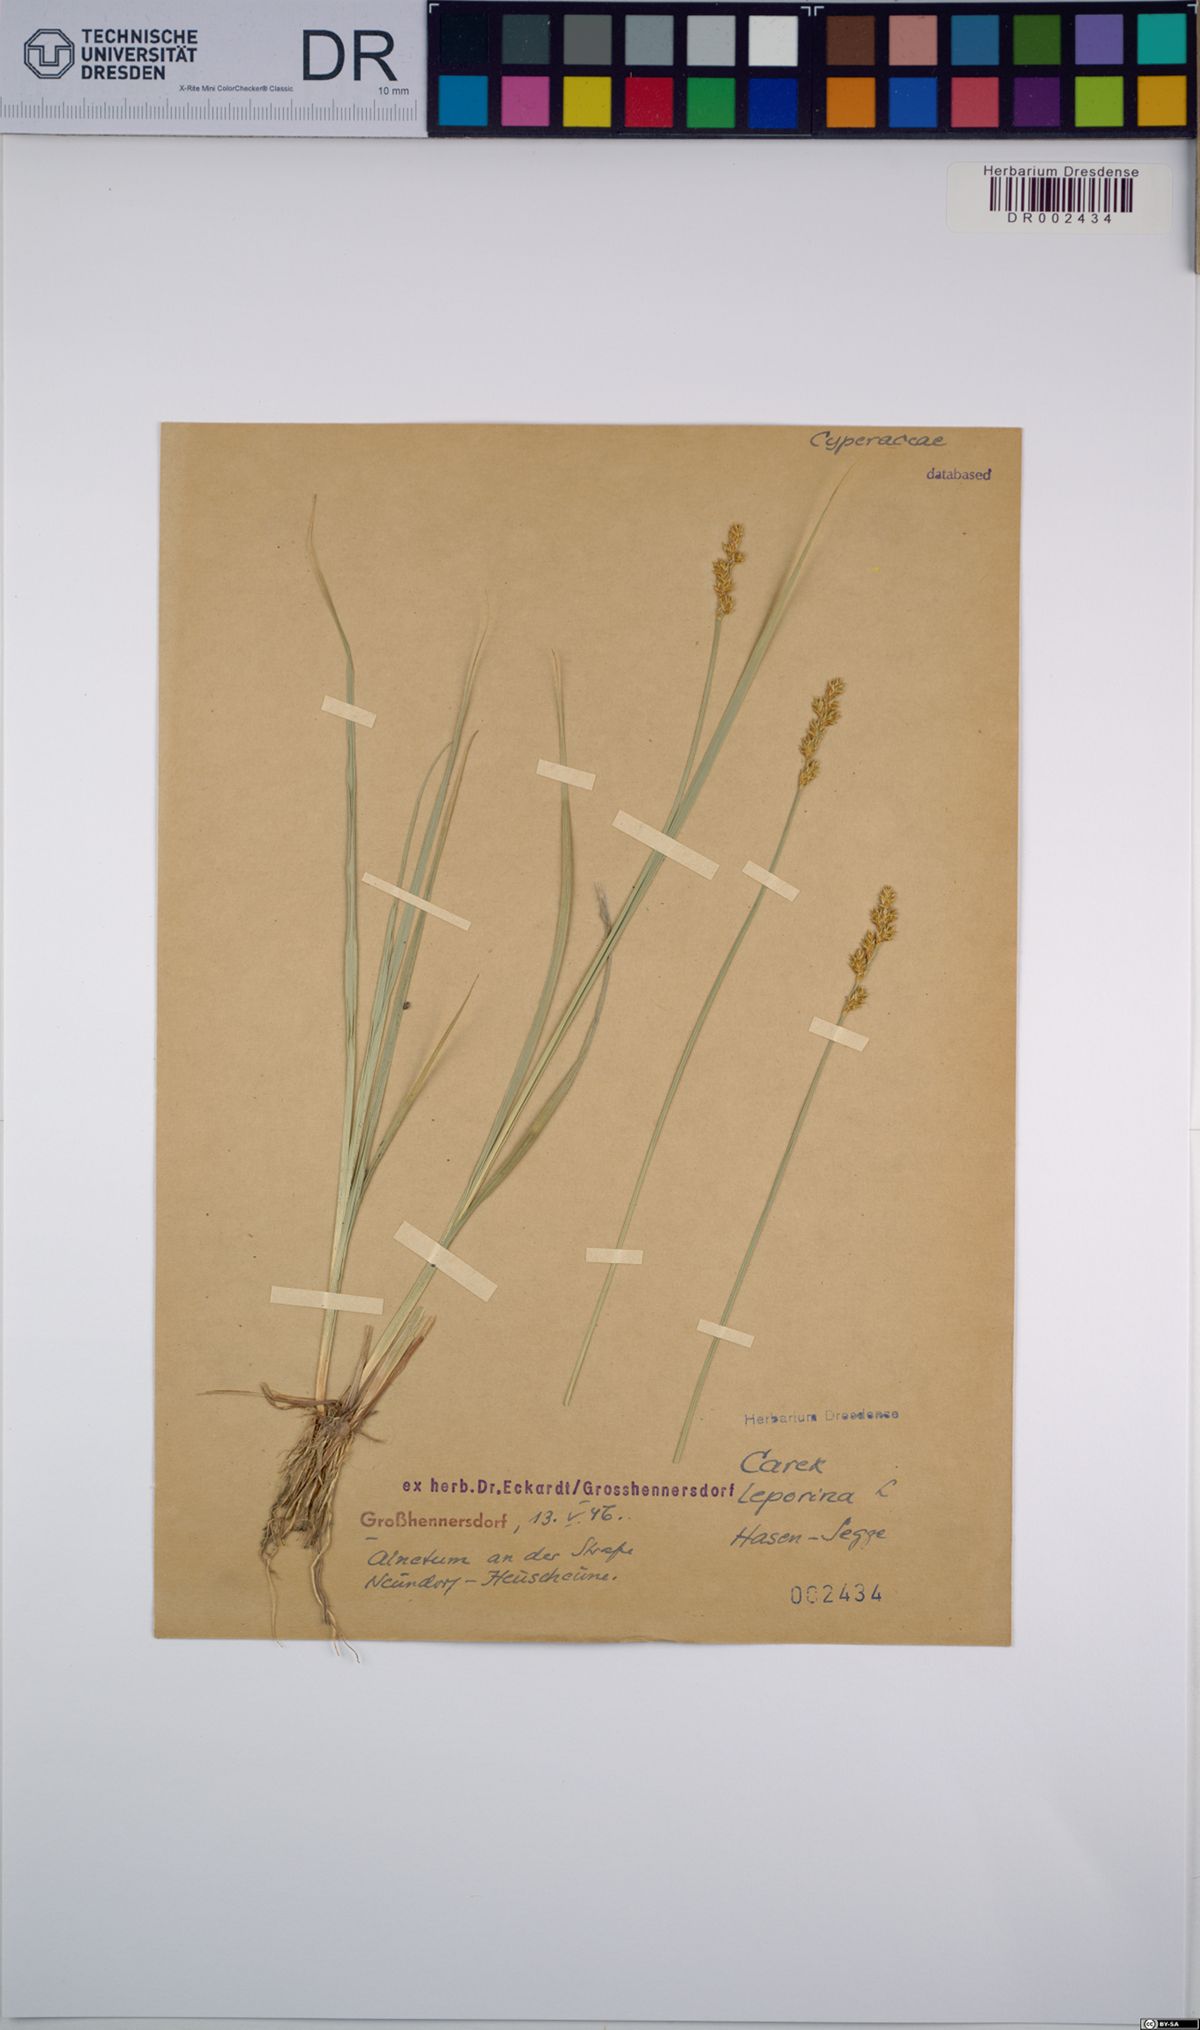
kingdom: Plantae
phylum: Tracheophyta
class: Liliopsida
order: Poales
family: Cyperaceae
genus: Carex
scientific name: Carex leporina
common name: Oval sedge
